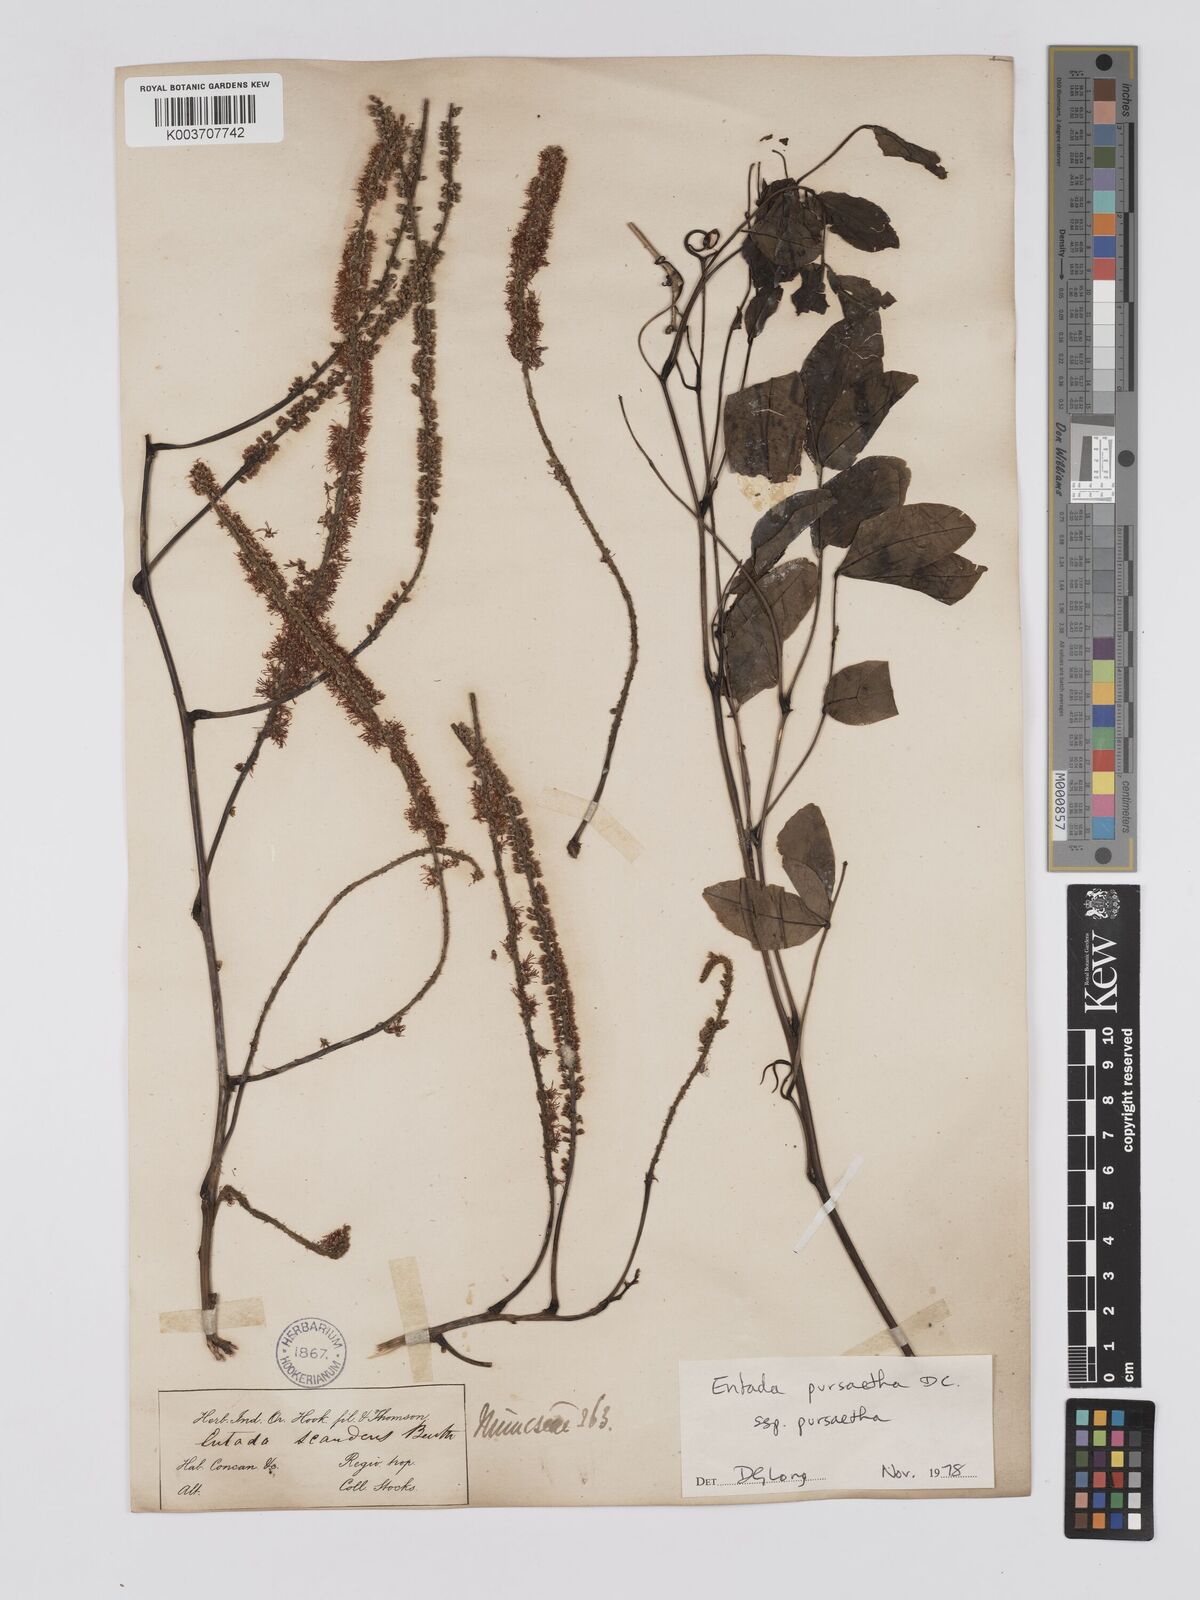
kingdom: Plantae
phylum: Tracheophyta
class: Magnoliopsida
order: Fabales
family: Fabaceae
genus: Entada
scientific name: Entada phaseoloides
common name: Matchbox-bean
